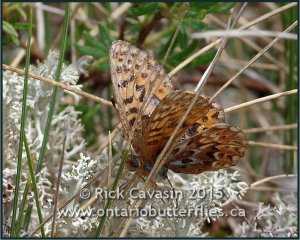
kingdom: Animalia
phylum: Arthropoda
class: Insecta
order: Lepidoptera
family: Nymphalidae
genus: Boloria
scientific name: Boloria freija
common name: Freija Fritillary
